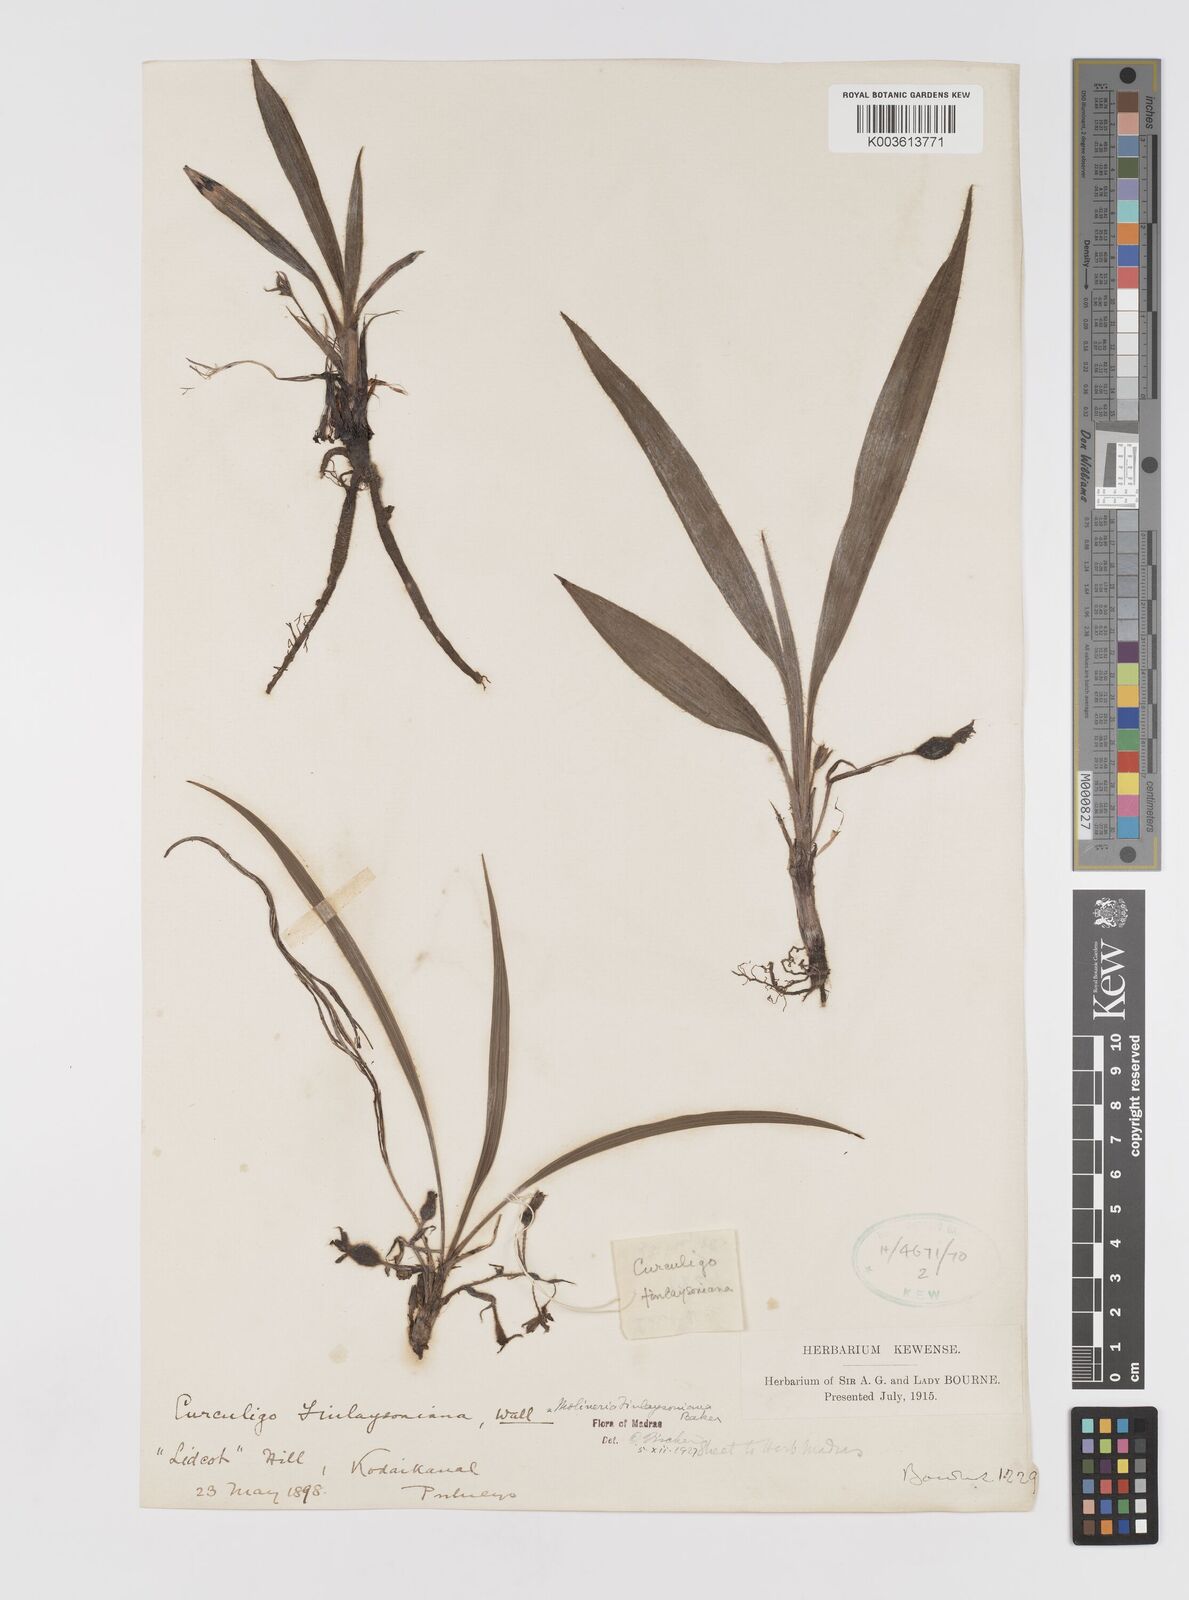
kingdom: Plantae
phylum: Tracheophyta
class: Liliopsida
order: Asparagales
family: Hypoxidaceae
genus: Curculigo
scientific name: Curculigo trichocarpa
